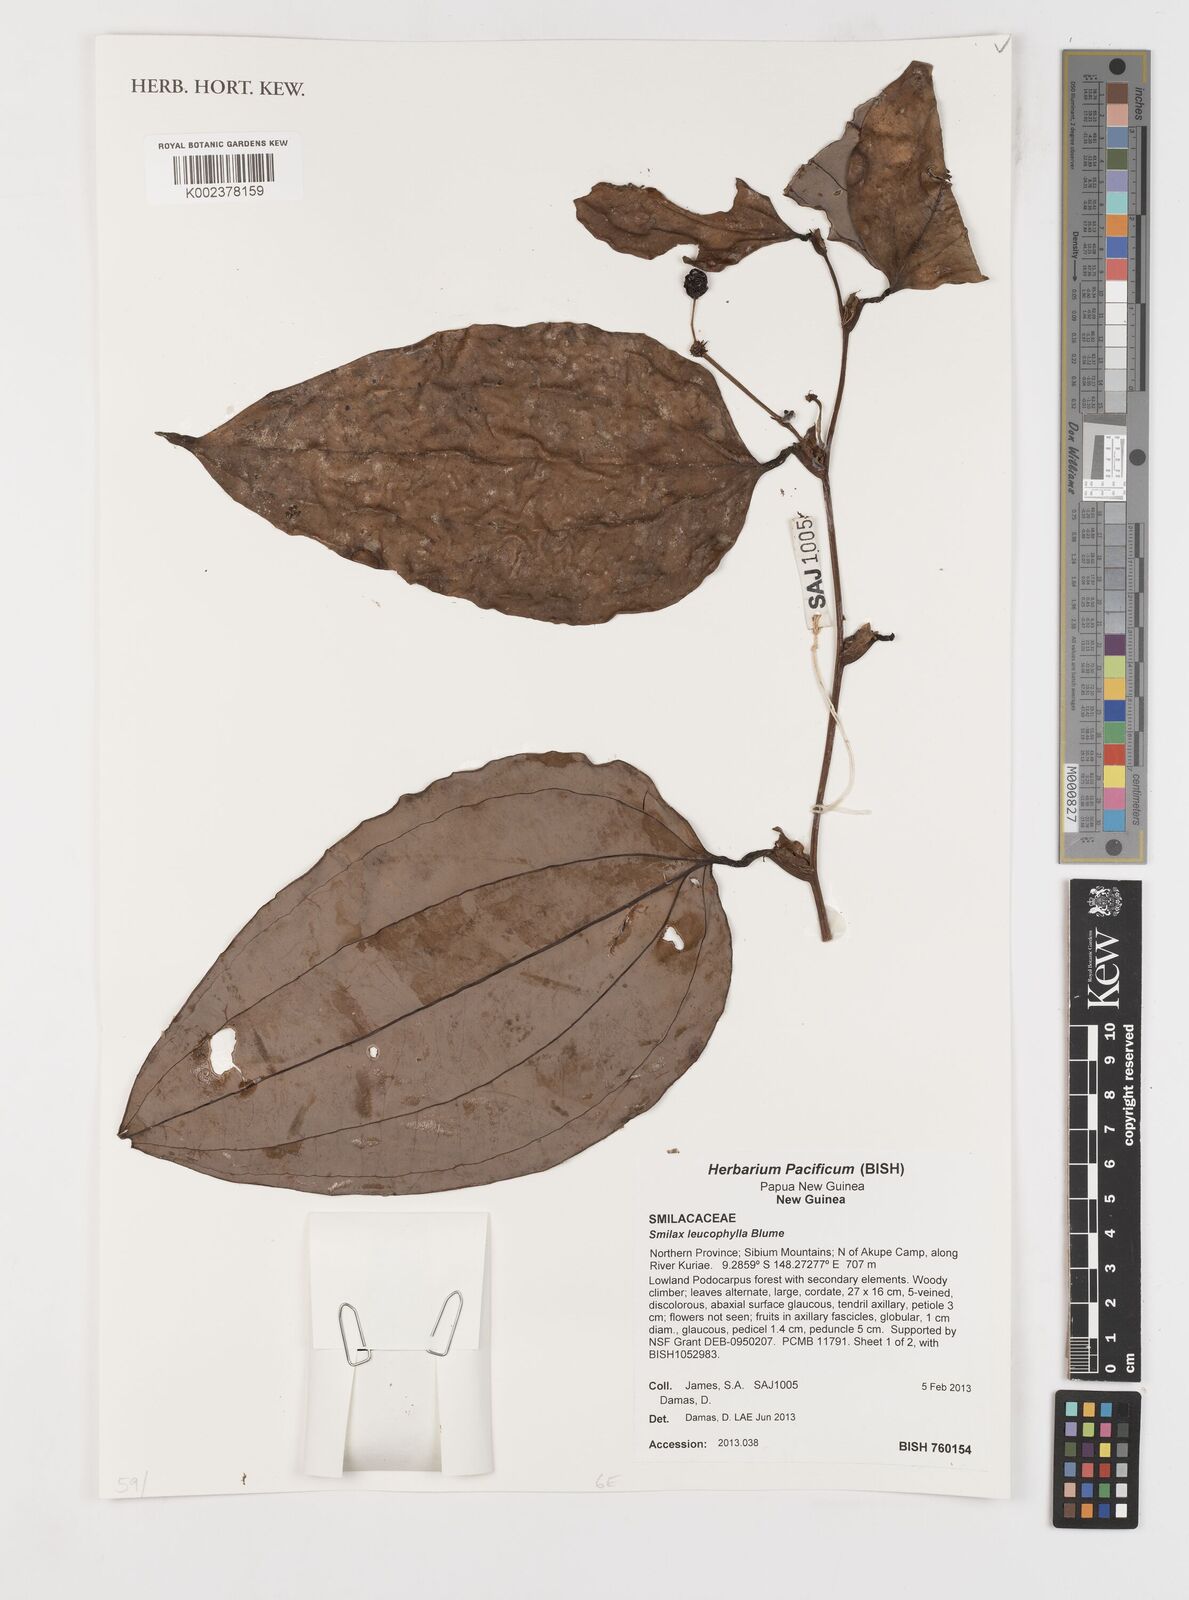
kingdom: Plantae
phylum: Tracheophyta
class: Liliopsida
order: Liliales
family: Smilacaceae
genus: Smilax
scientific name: Smilax leucophylla
